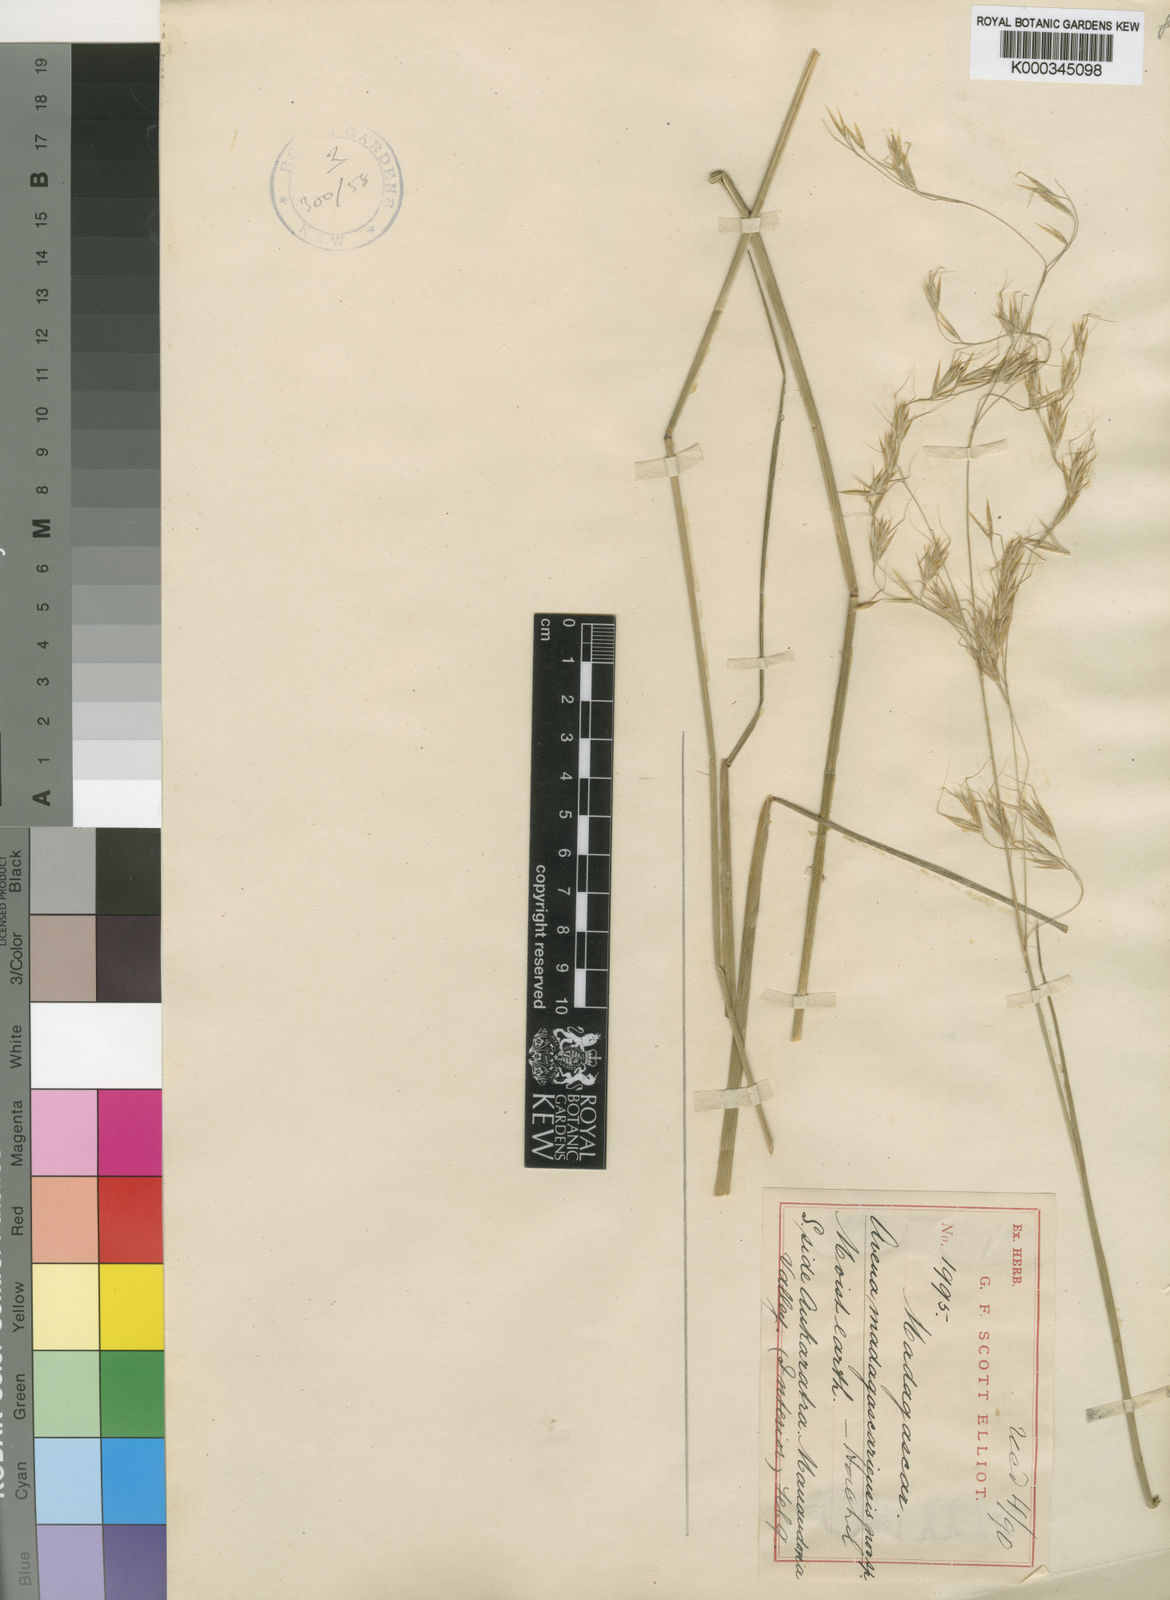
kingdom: Plantae
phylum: Tracheophyta
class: Liliopsida
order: Poales
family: Poaceae
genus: Trisetopsis
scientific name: Trisetopsis elongata
